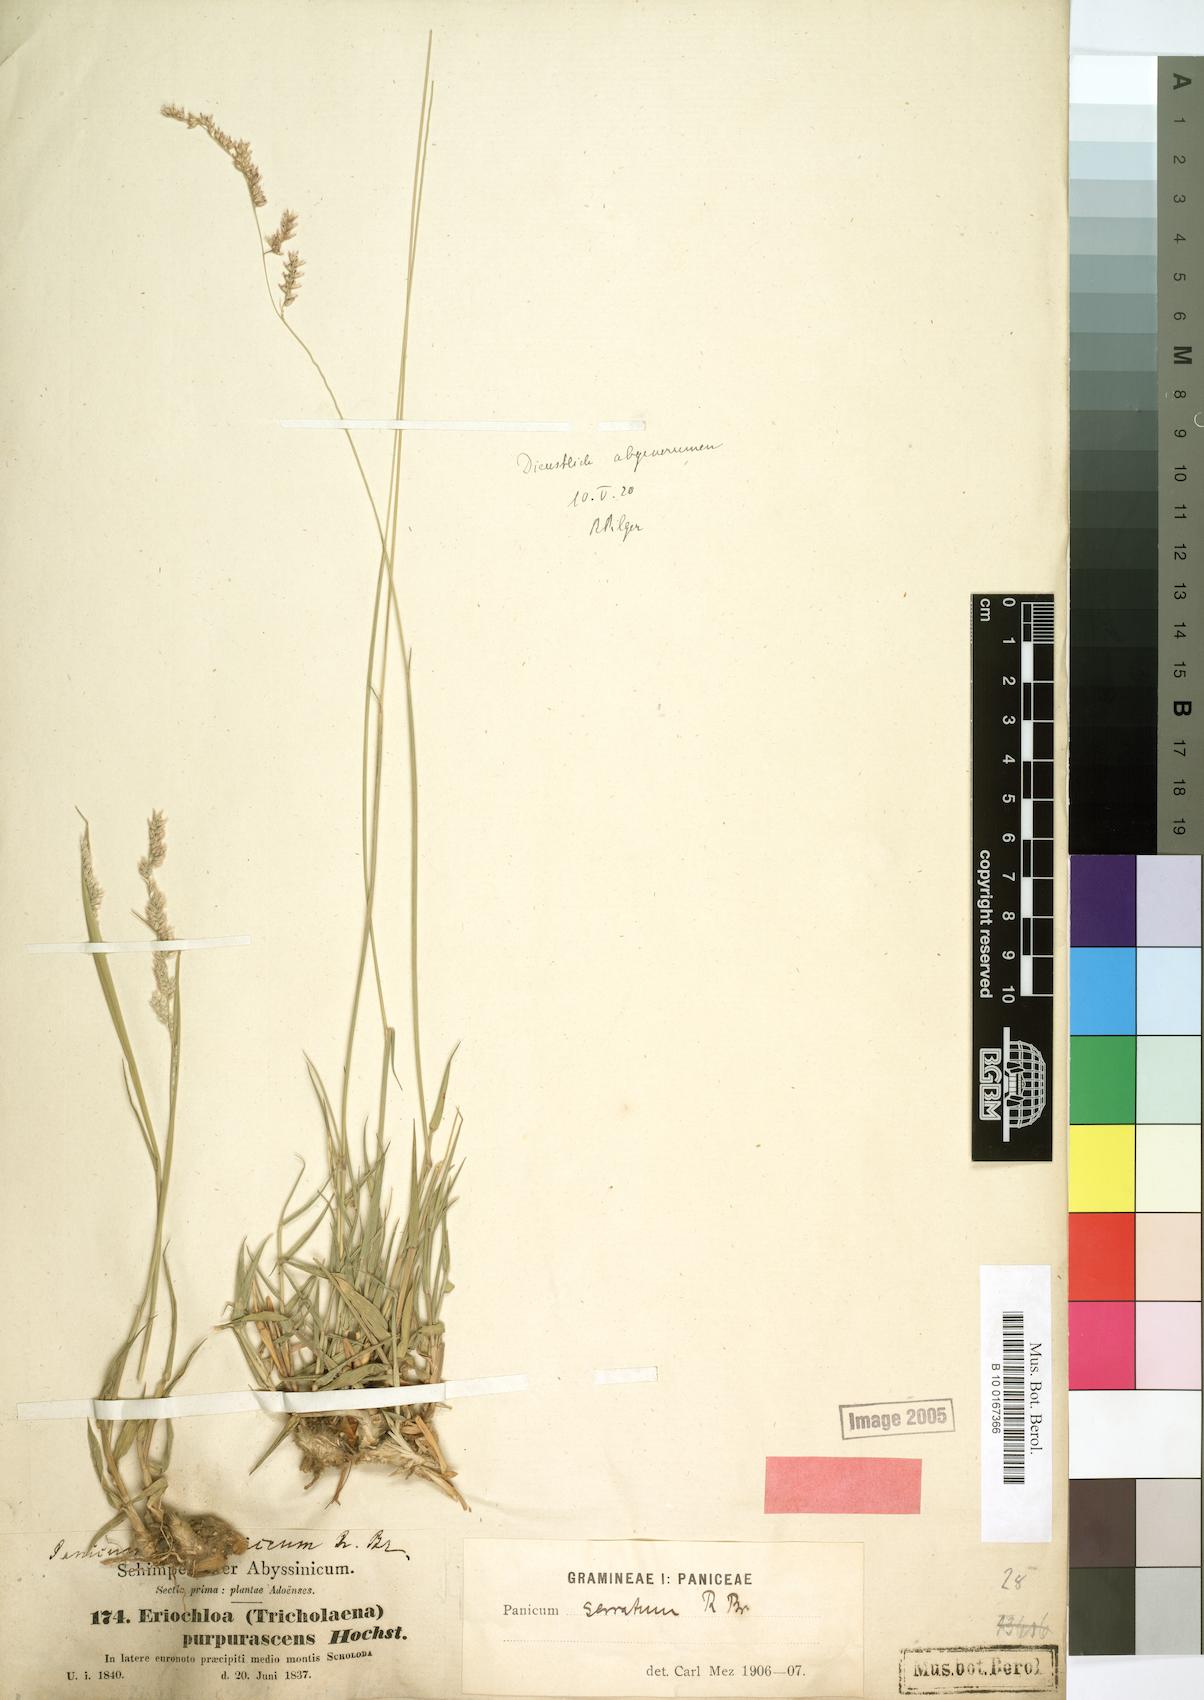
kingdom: Plantae
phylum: Tracheophyta
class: Liliopsida
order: Poales
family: Poaceae
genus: Urochloa
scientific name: Urochloa serrata
